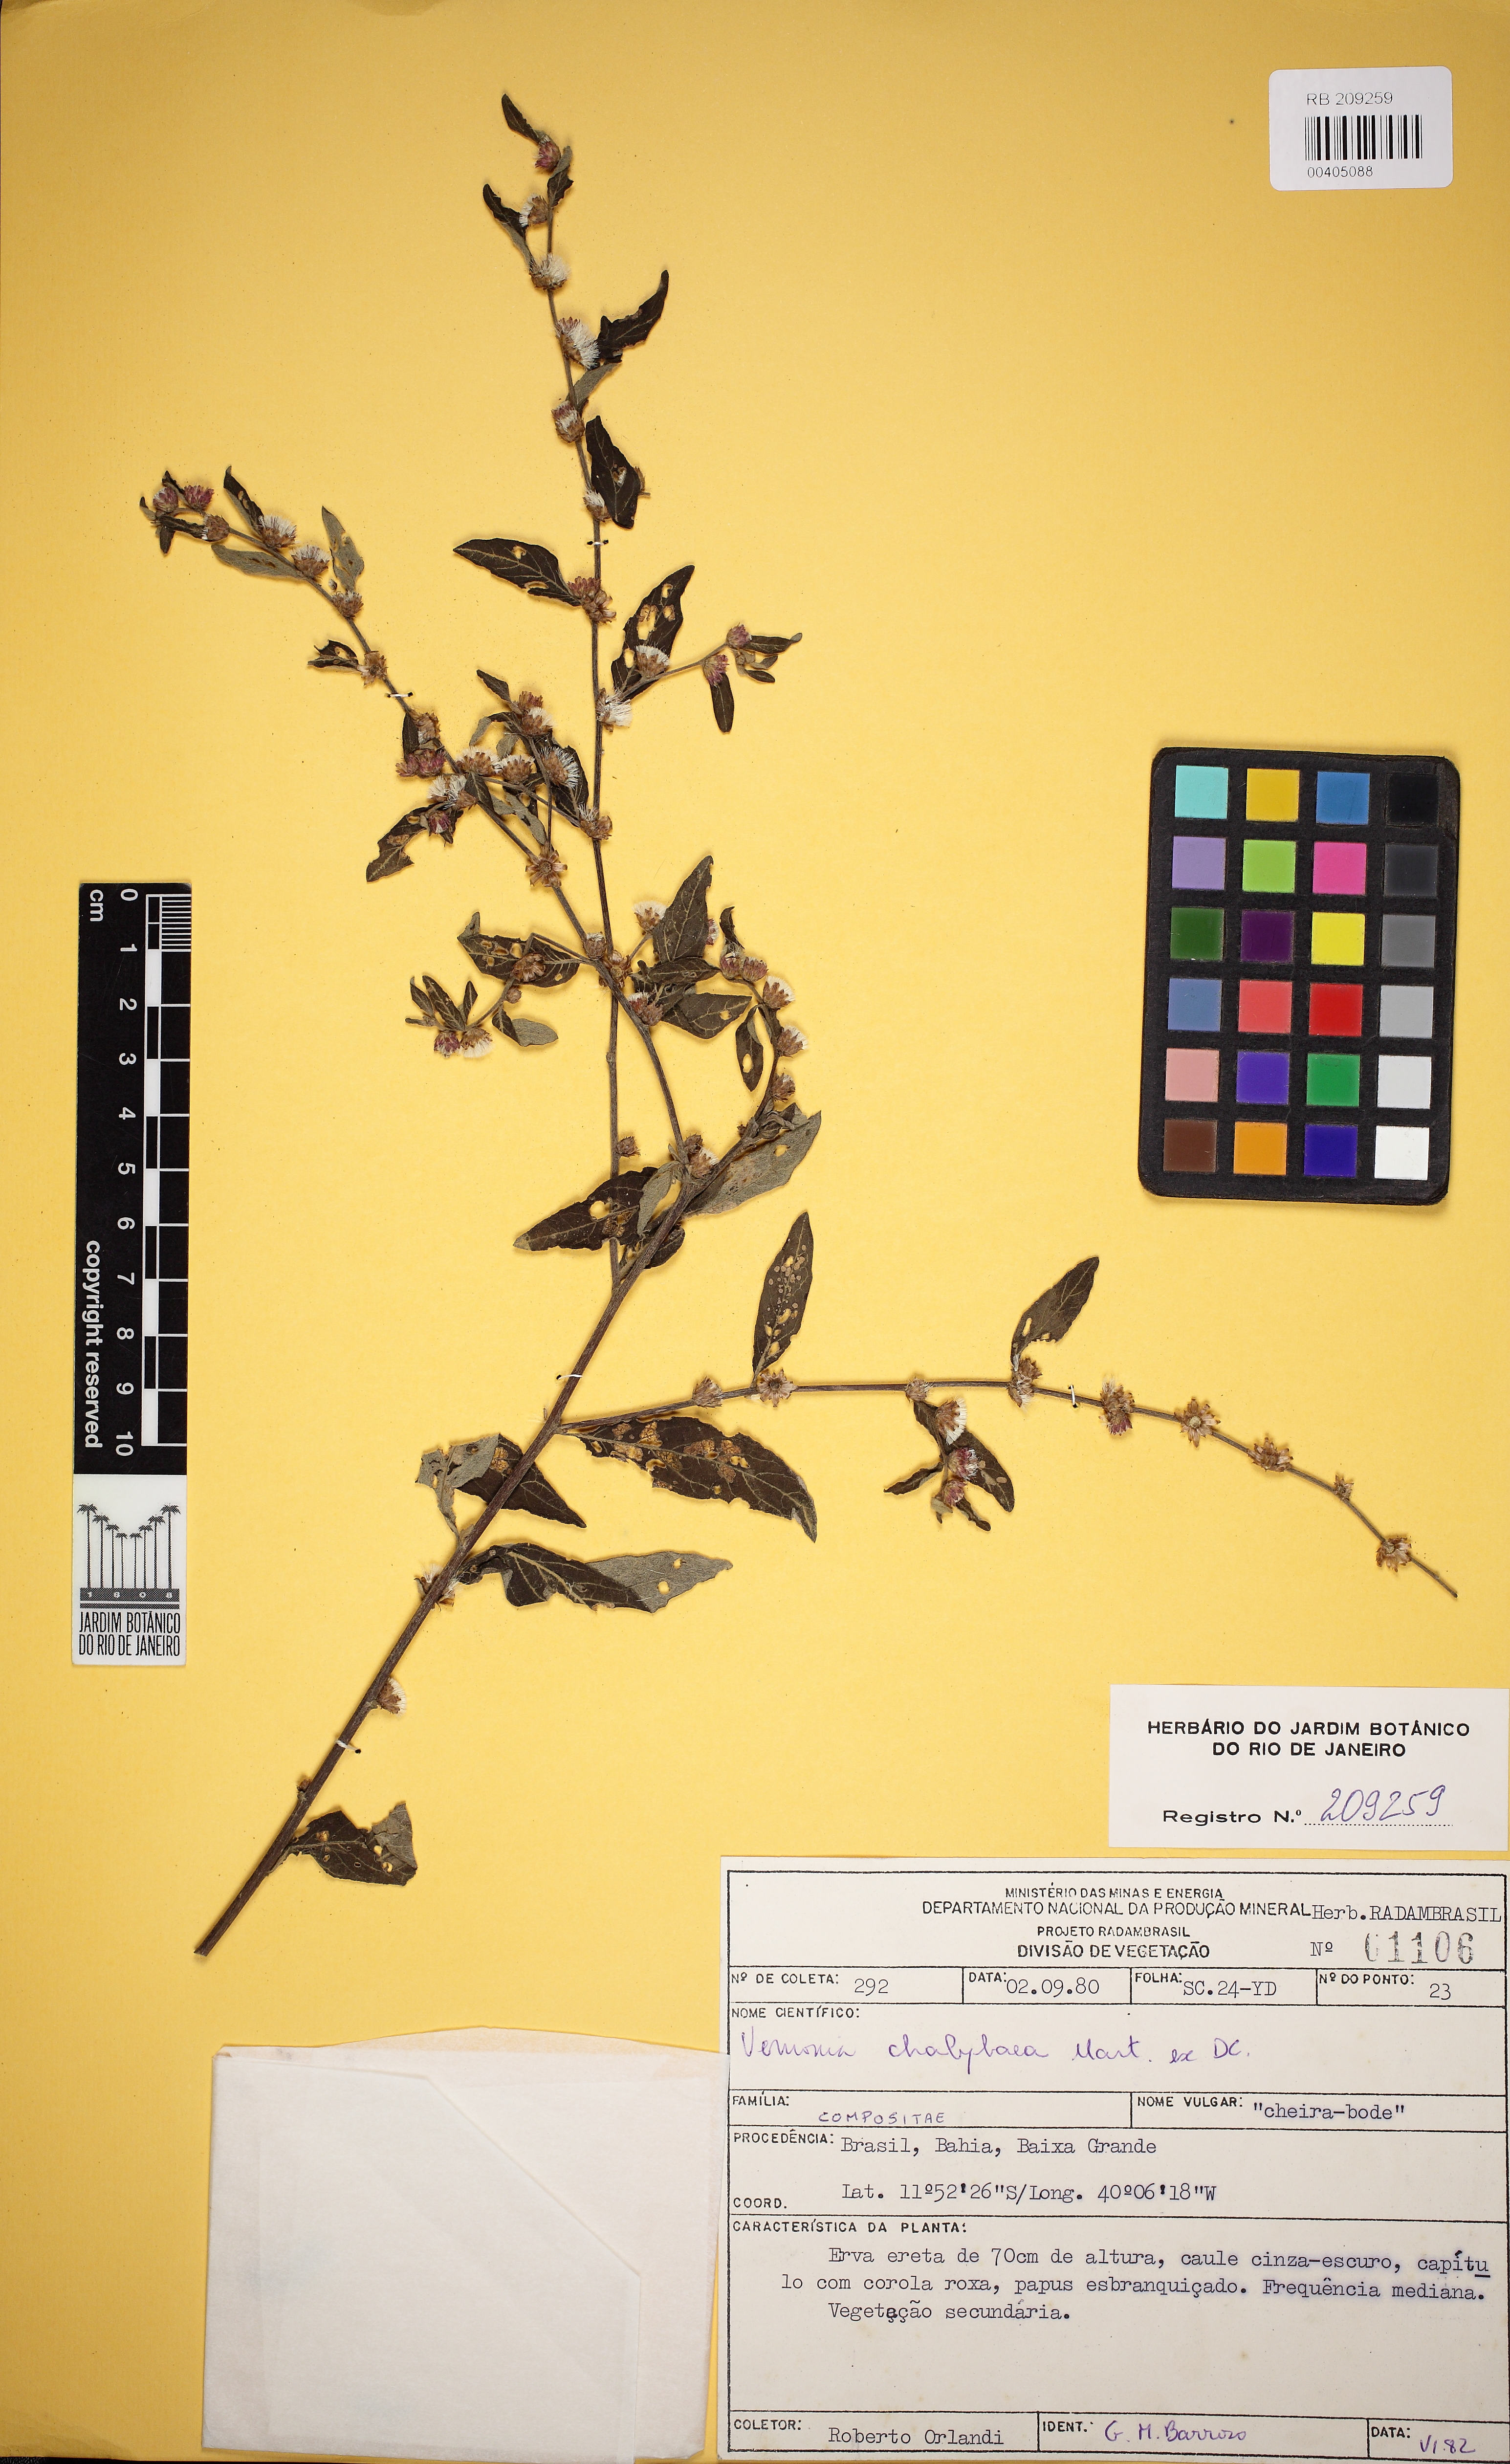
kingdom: Plantae
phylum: Tracheophyta
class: Magnoliopsida
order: Asterales
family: Asteraceae
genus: Lepidaploa
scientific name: Lepidaploa chalybaea
